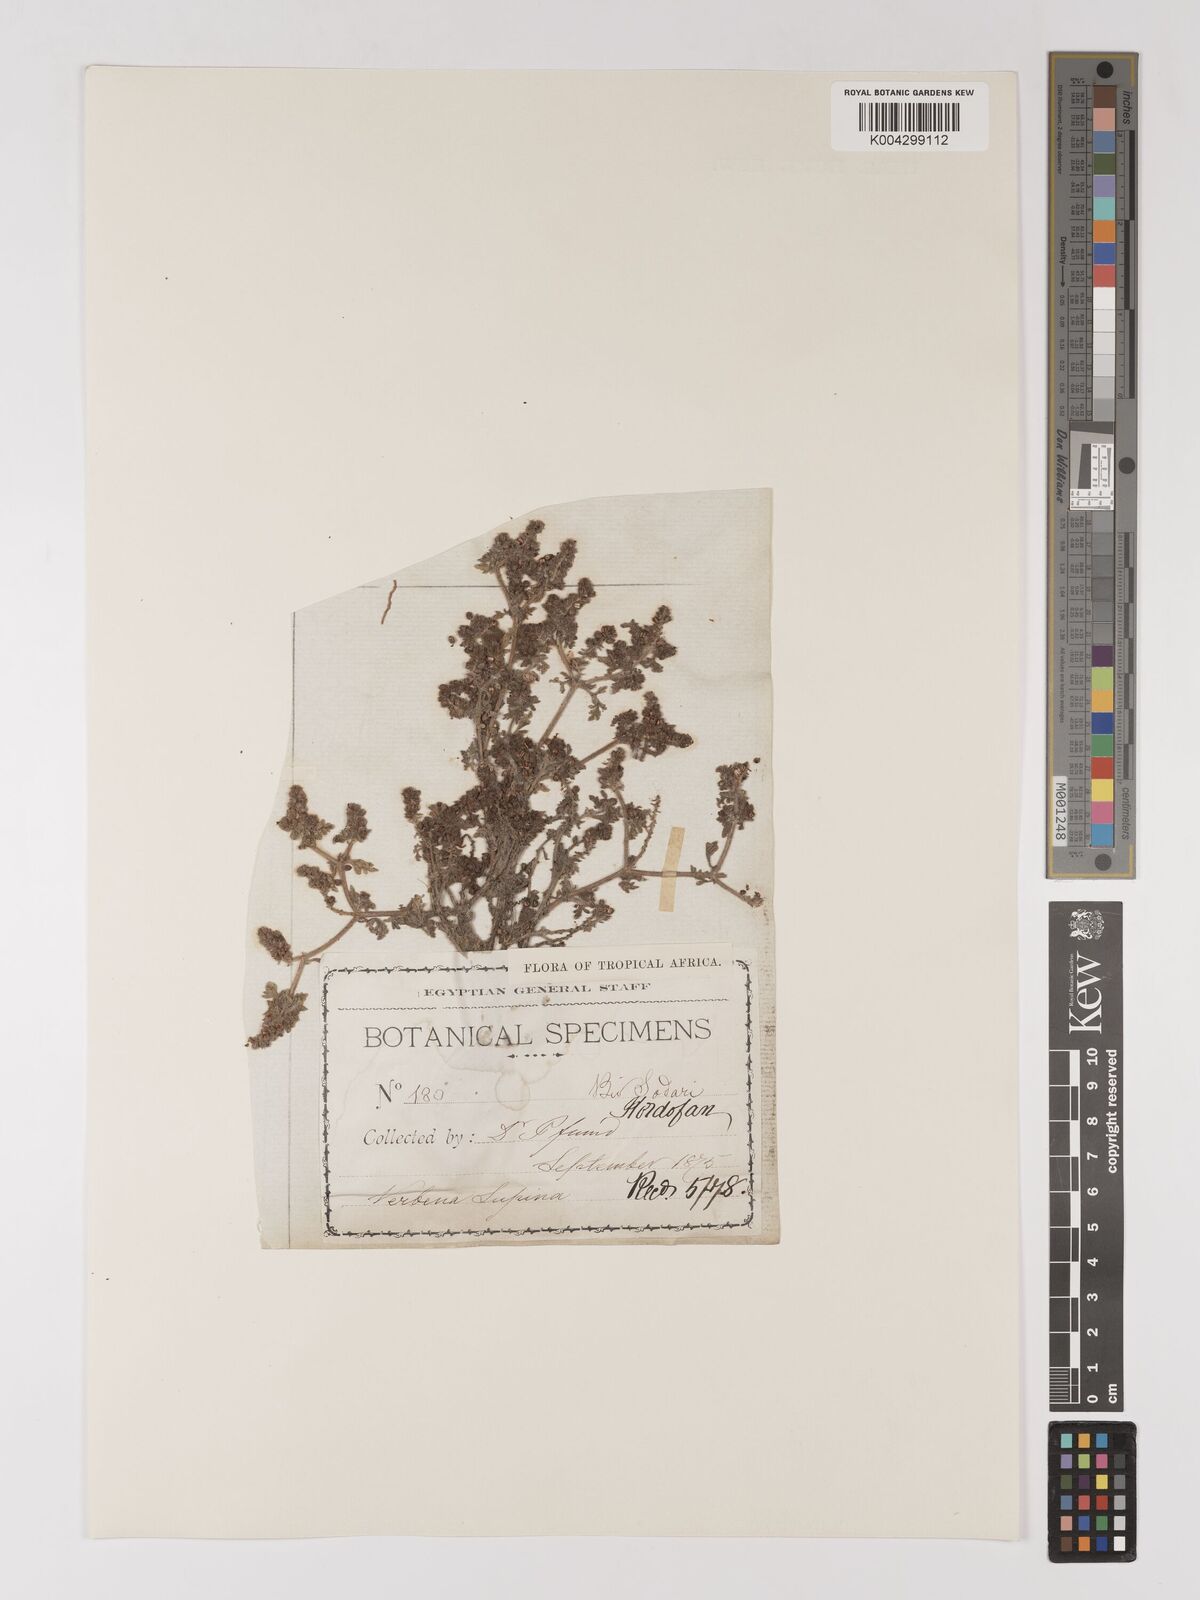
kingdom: Plantae
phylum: Tracheophyta
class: Magnoliopsida
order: Lamiales
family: Verbenaceae
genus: Verbena
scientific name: Verbena supina
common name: Trailing vervain
